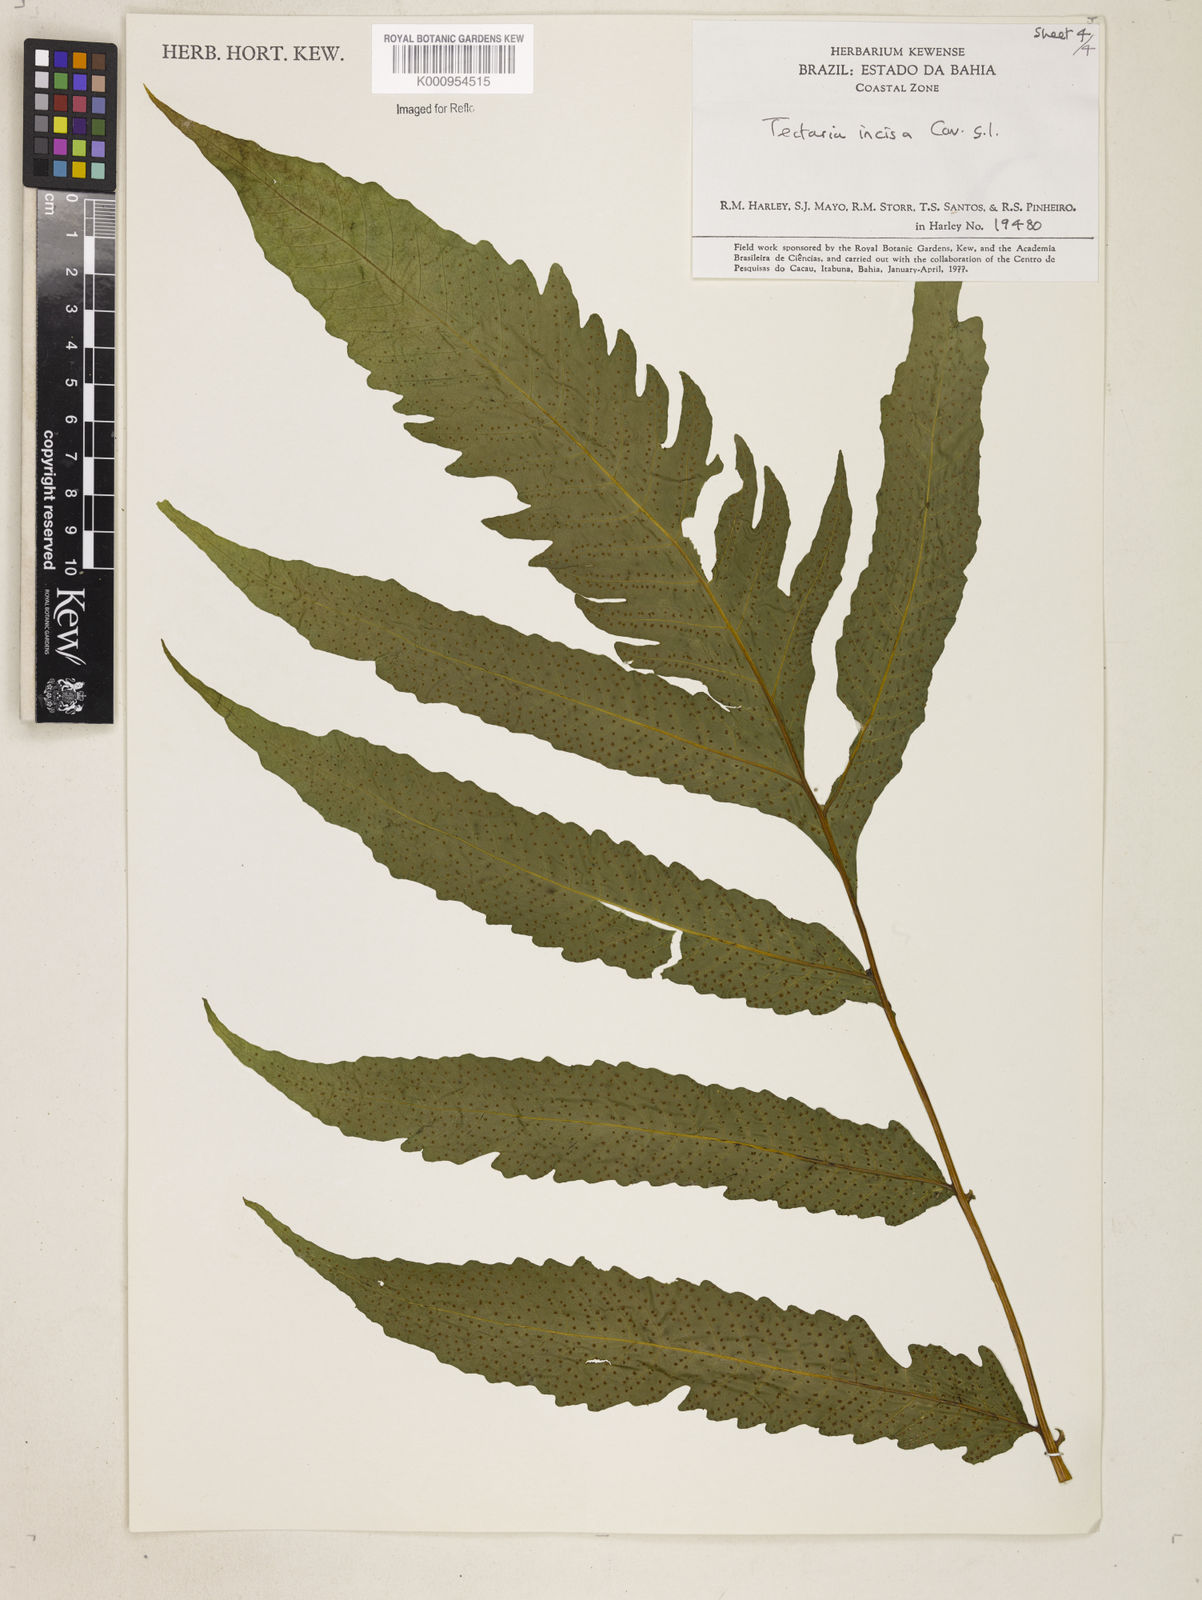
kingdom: Plantae
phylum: Tracheophyta
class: Polypodiopsida
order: Polypodiales
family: Tectariaceae
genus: Tectaria
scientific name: Tectaria incisa
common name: Incised halberd fern
